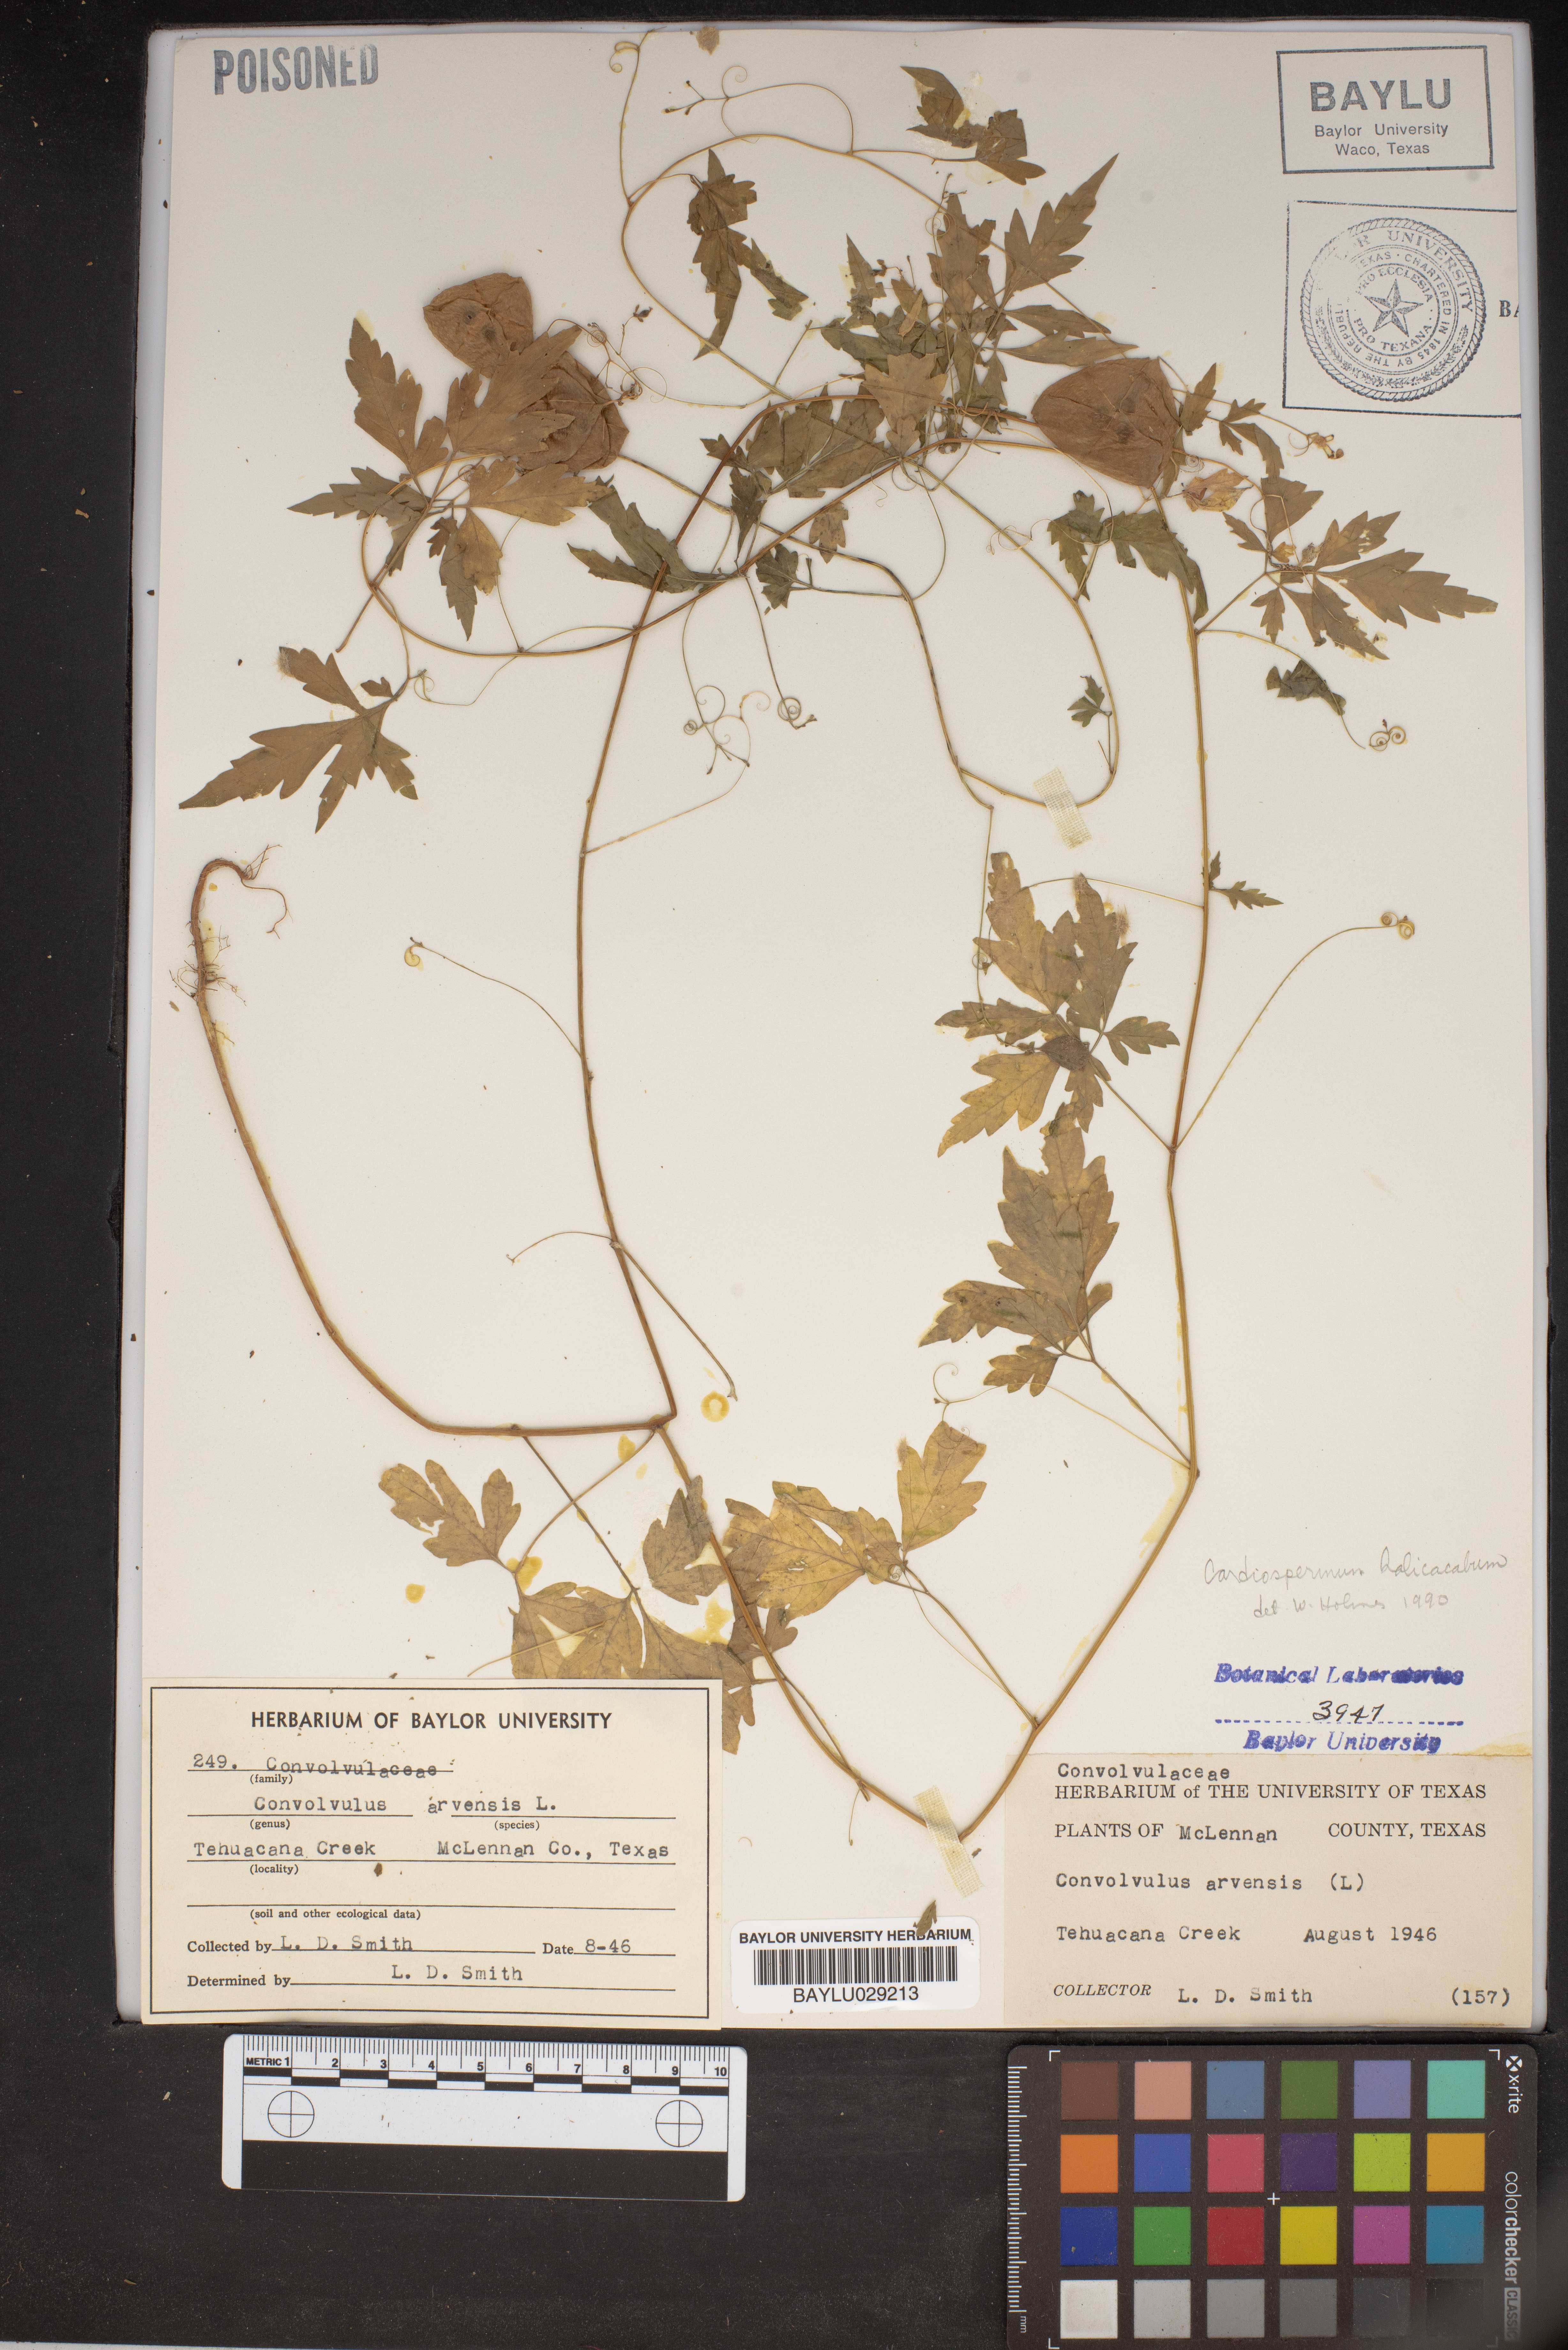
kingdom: Plantae
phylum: Tracheophyta
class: Magnoliopsida
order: Solanales
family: Convolvulaceae
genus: Convolvulus
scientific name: Convolvulus arvensis
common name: Field bindweed
